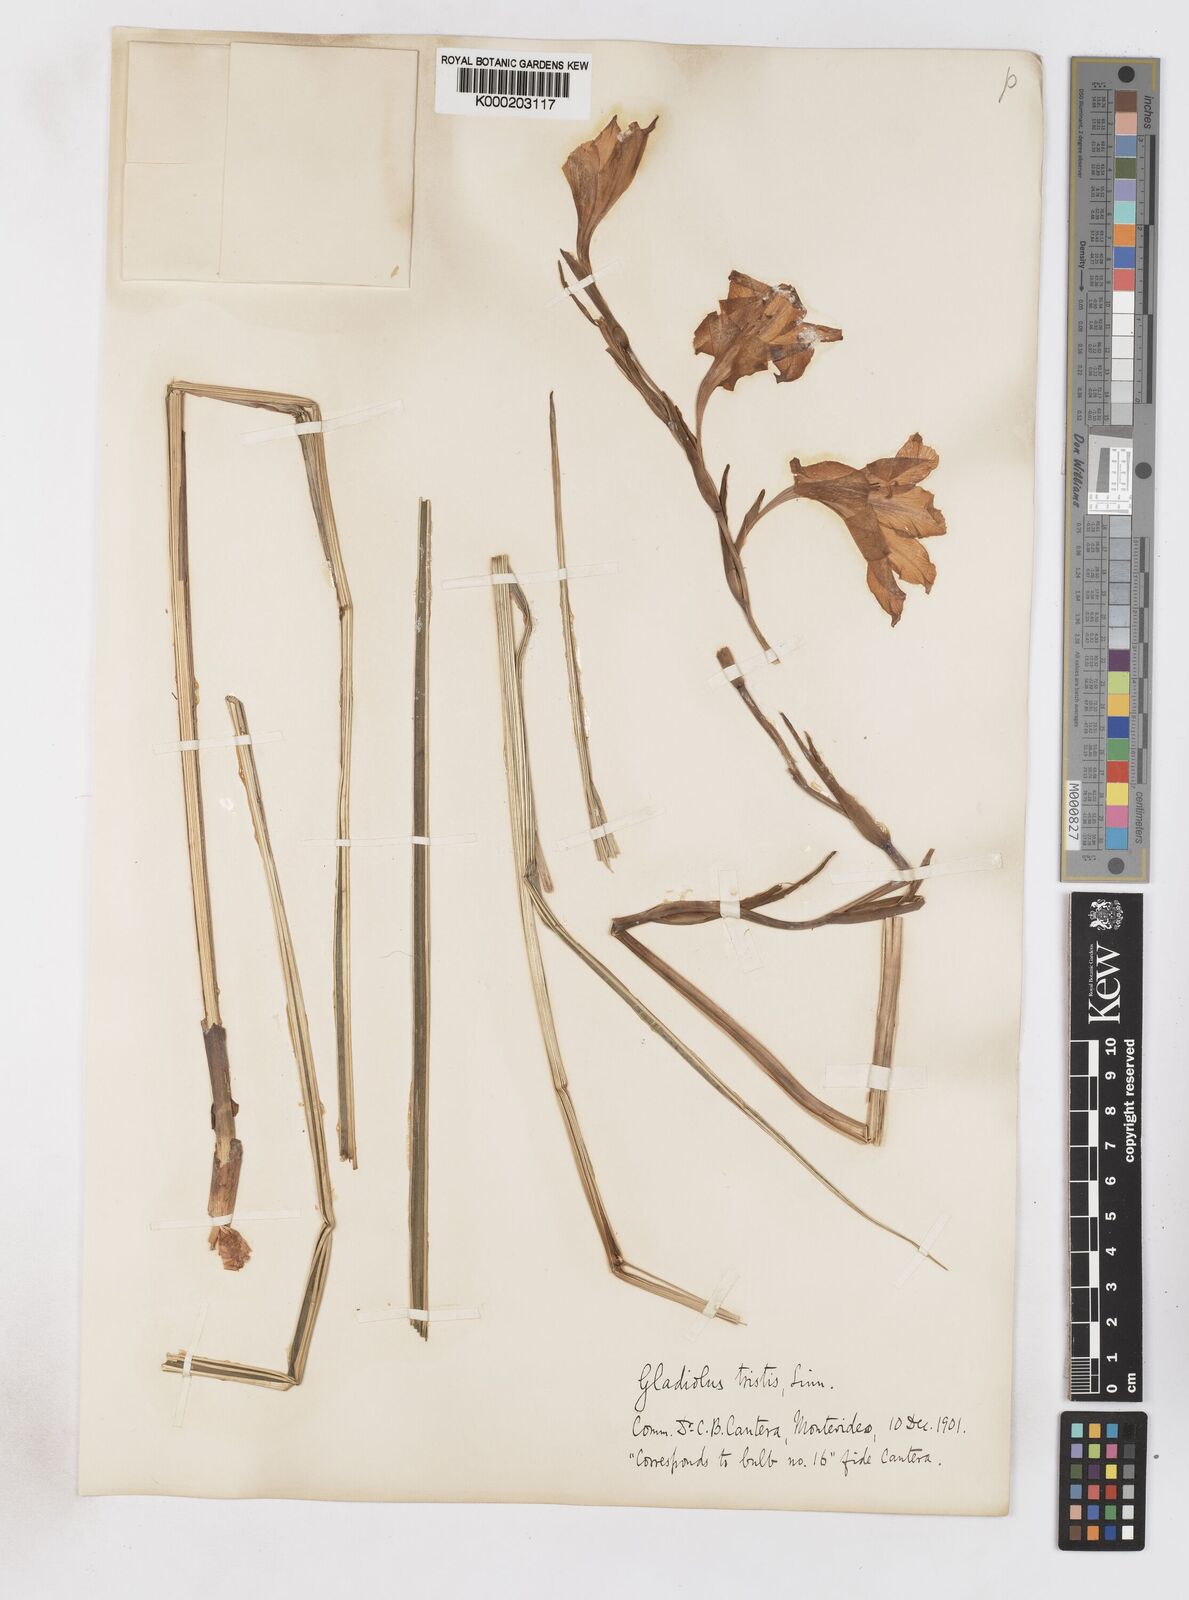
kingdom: Plantae
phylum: Tracheophyta
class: Liliopsida
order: Asparagales
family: Iridaceae
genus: Gladiolus
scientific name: Gladiolus tristis
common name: Ever-flowering gladiolus
